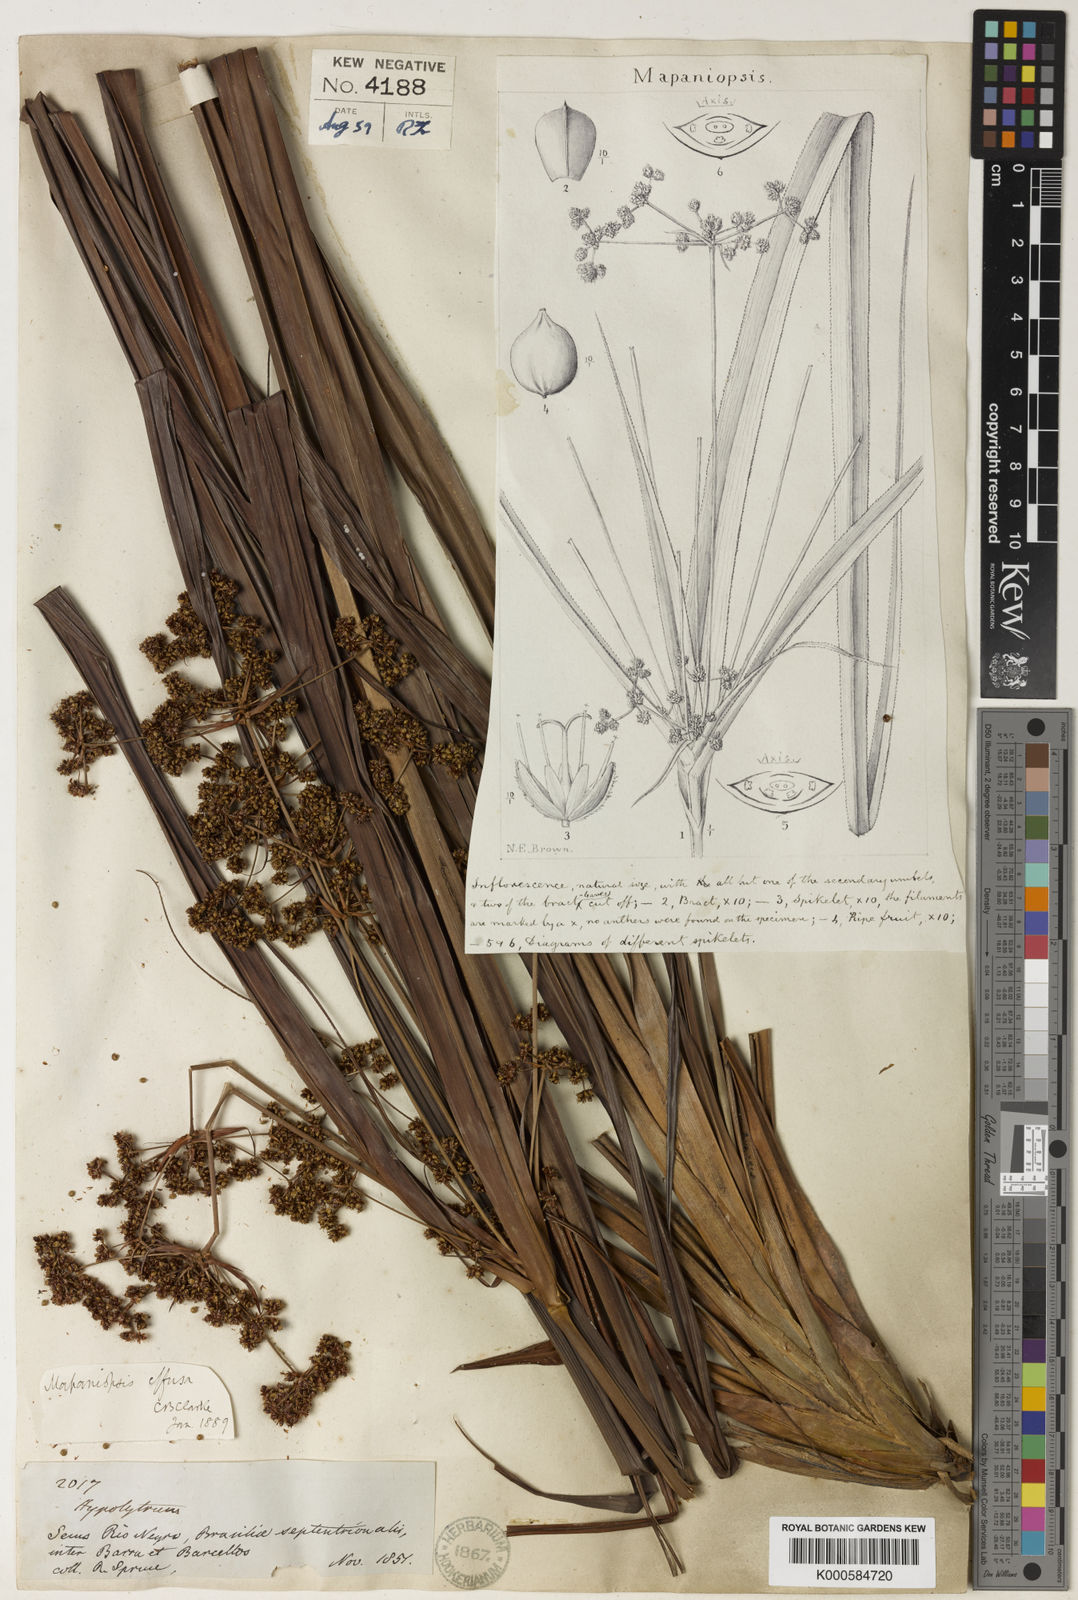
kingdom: Plantae
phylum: Tracheophyta
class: Liliopsida
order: Poales
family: Cyperaceae
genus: Mapania
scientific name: Mapania effusa
